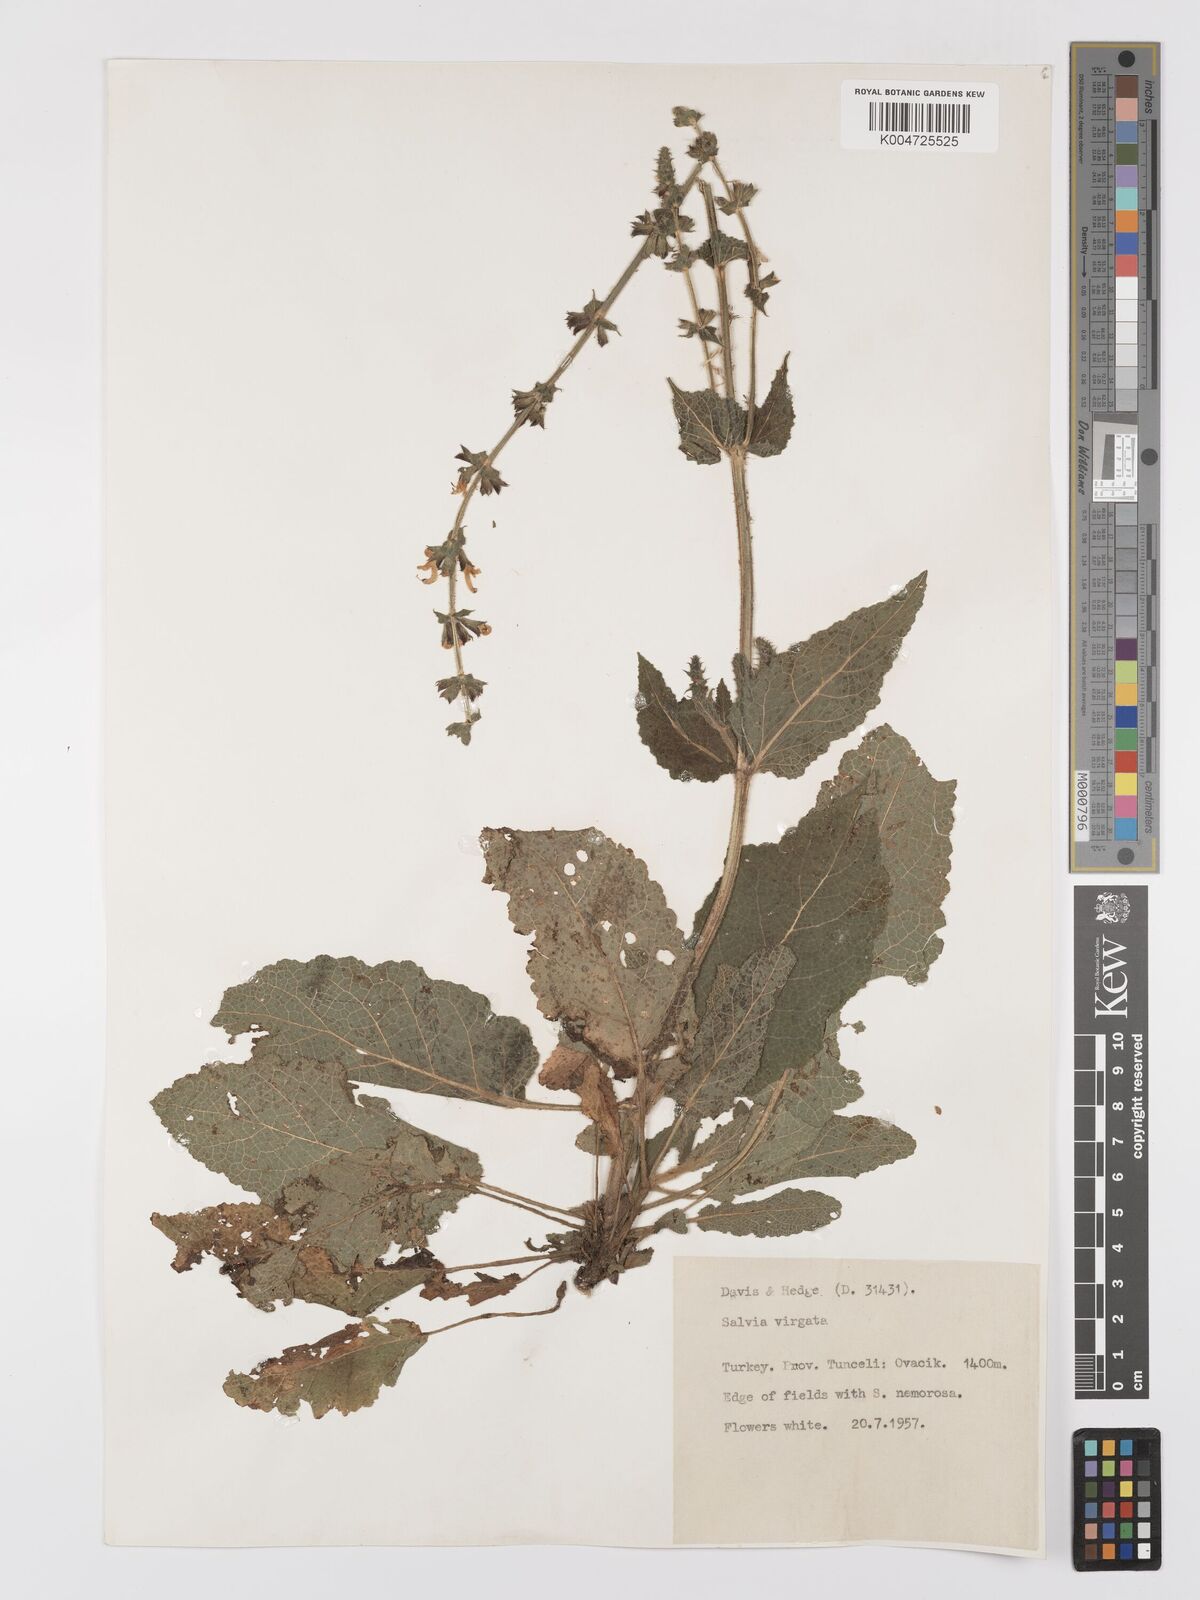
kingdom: Plantae
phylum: Tracheophyta
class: Magnoliopsida
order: Lamiales
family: Lamiaceae
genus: Salvia
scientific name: Salvia
